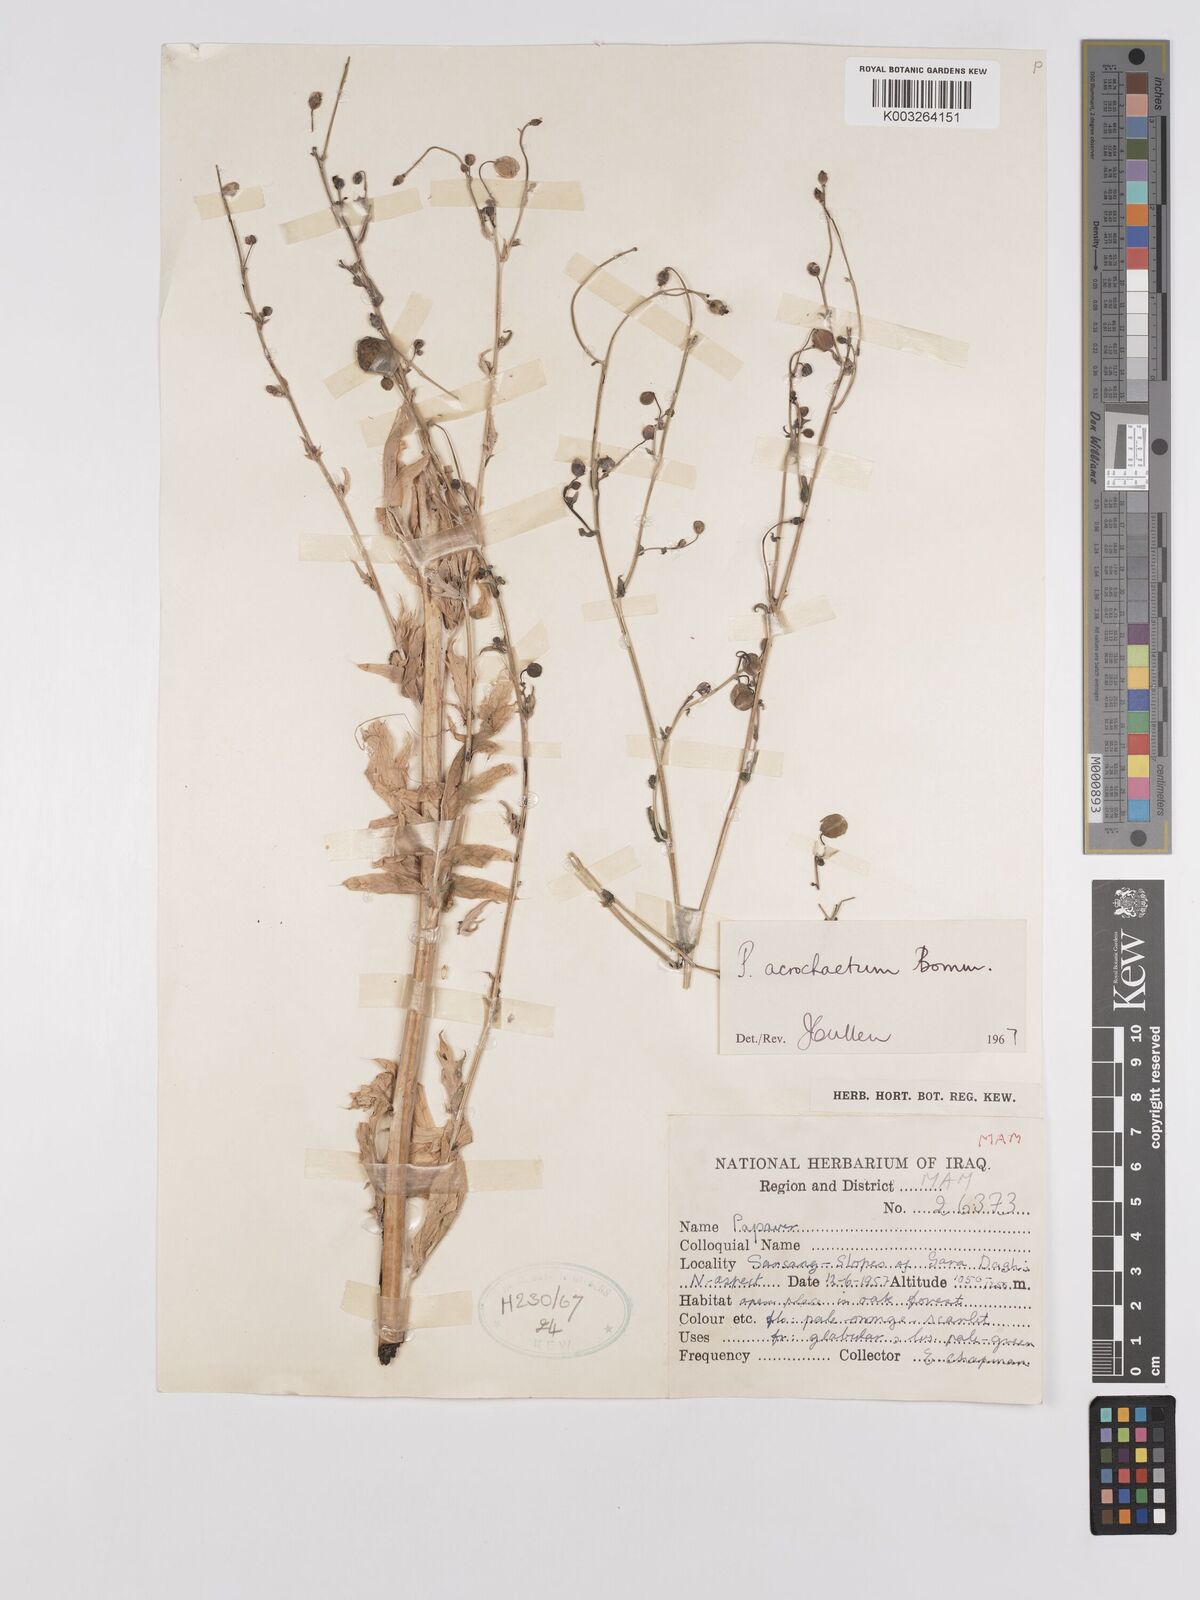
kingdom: Plantae
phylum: Tracheophyta
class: Magnoliopsida
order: Ranunculales
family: Papaveraceae
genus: Papaver
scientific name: Papaver acrochaetum
